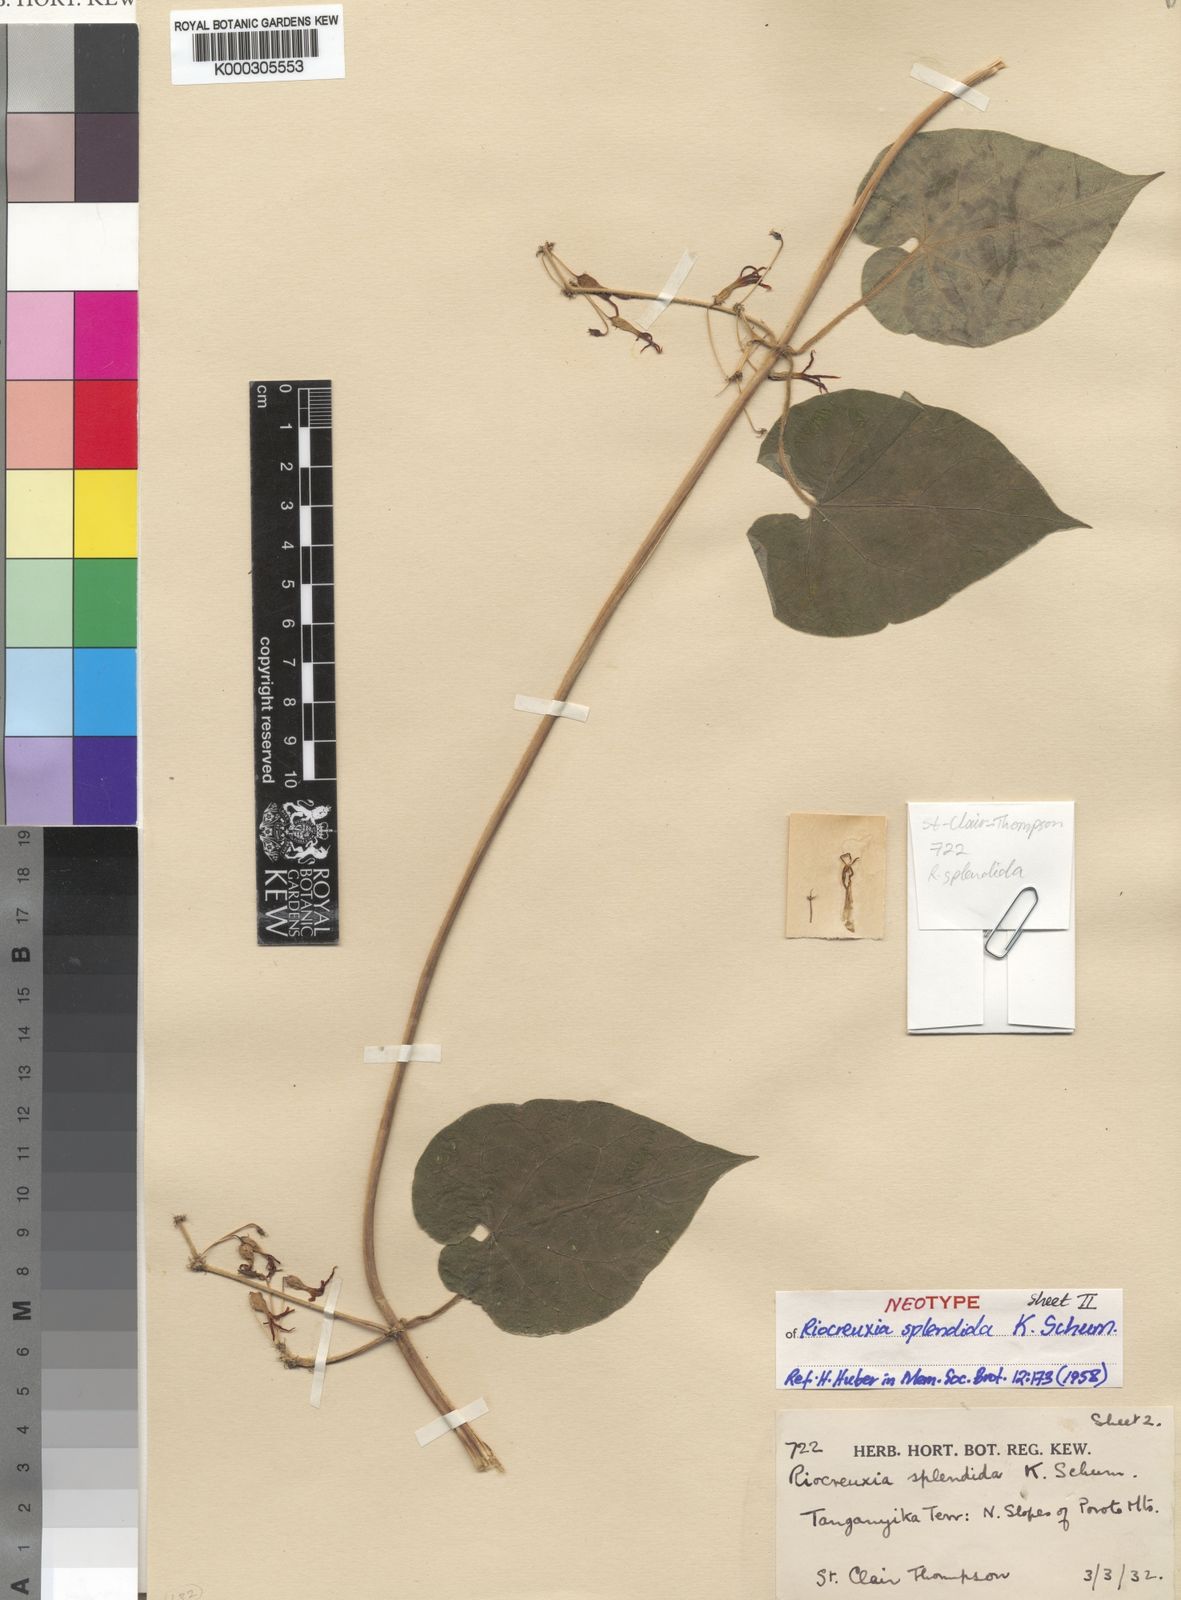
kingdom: Plantae
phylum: Tracheophyta
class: Magnoliopsida
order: Gentianales
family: Apocynaceae
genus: Riocreuxia
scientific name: Riocreuxia splendida
